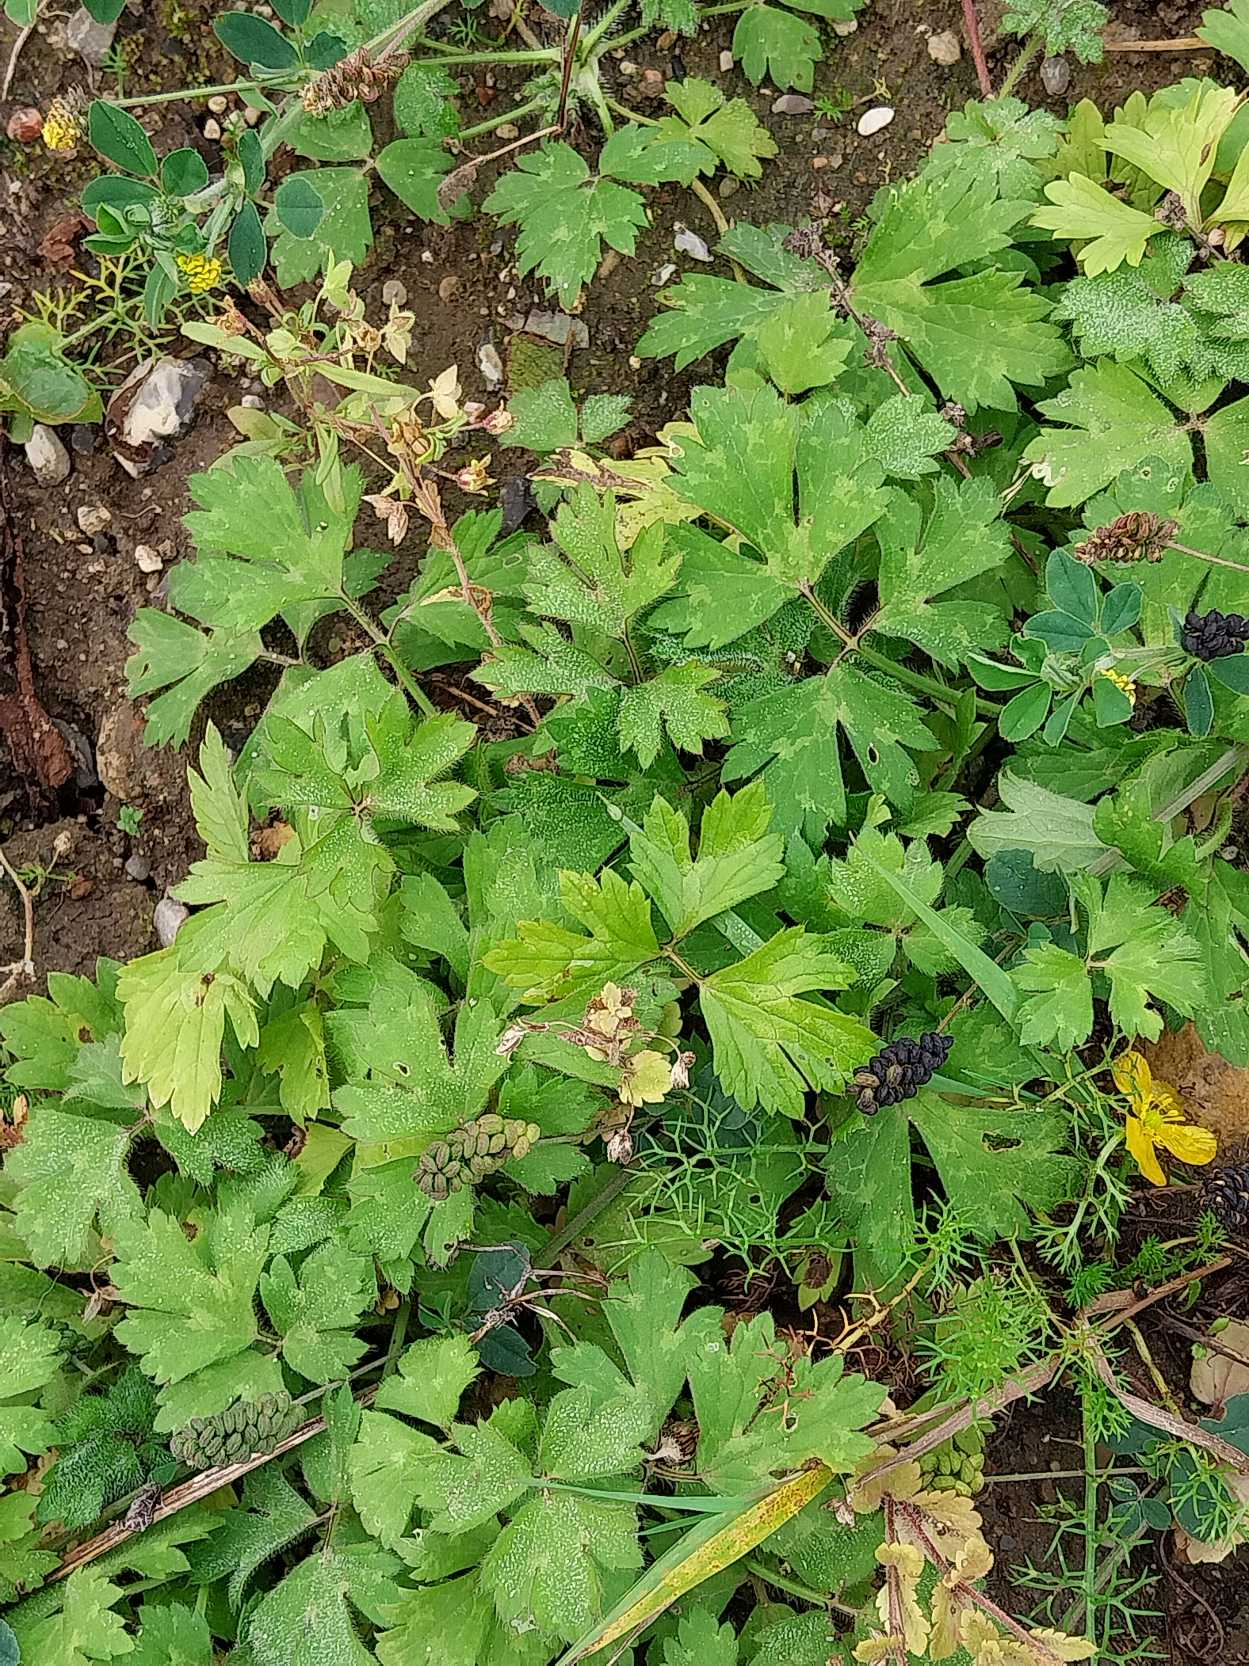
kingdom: Plantae
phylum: Tracheophyta
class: Magnoliopsida
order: Ranunculales
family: Ranunculaceae
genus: Ranunculus
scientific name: Ranunculus repens
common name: Lav ranunkel
